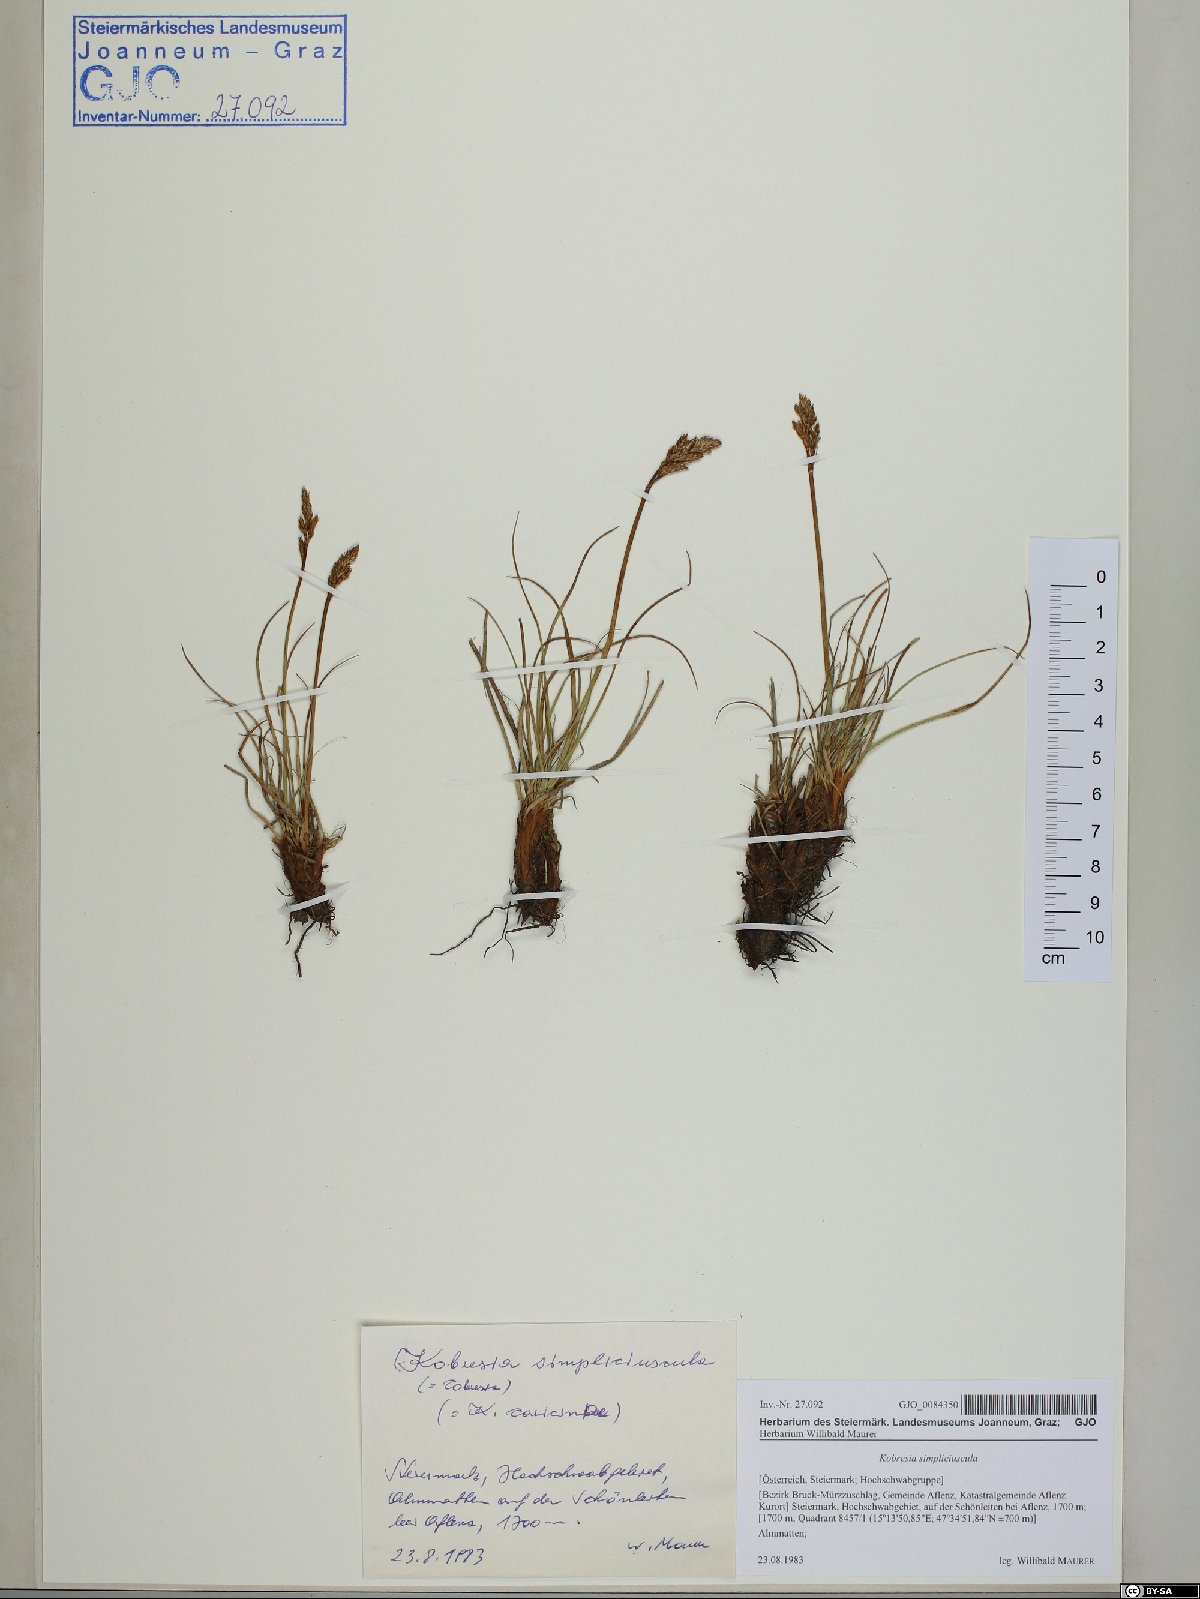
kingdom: Plantae
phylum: Tracheophyta
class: Liliopsida
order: Poales
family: Cyperaceae
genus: Carex
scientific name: Carex simpliciuscula
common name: Simple bog sedge
